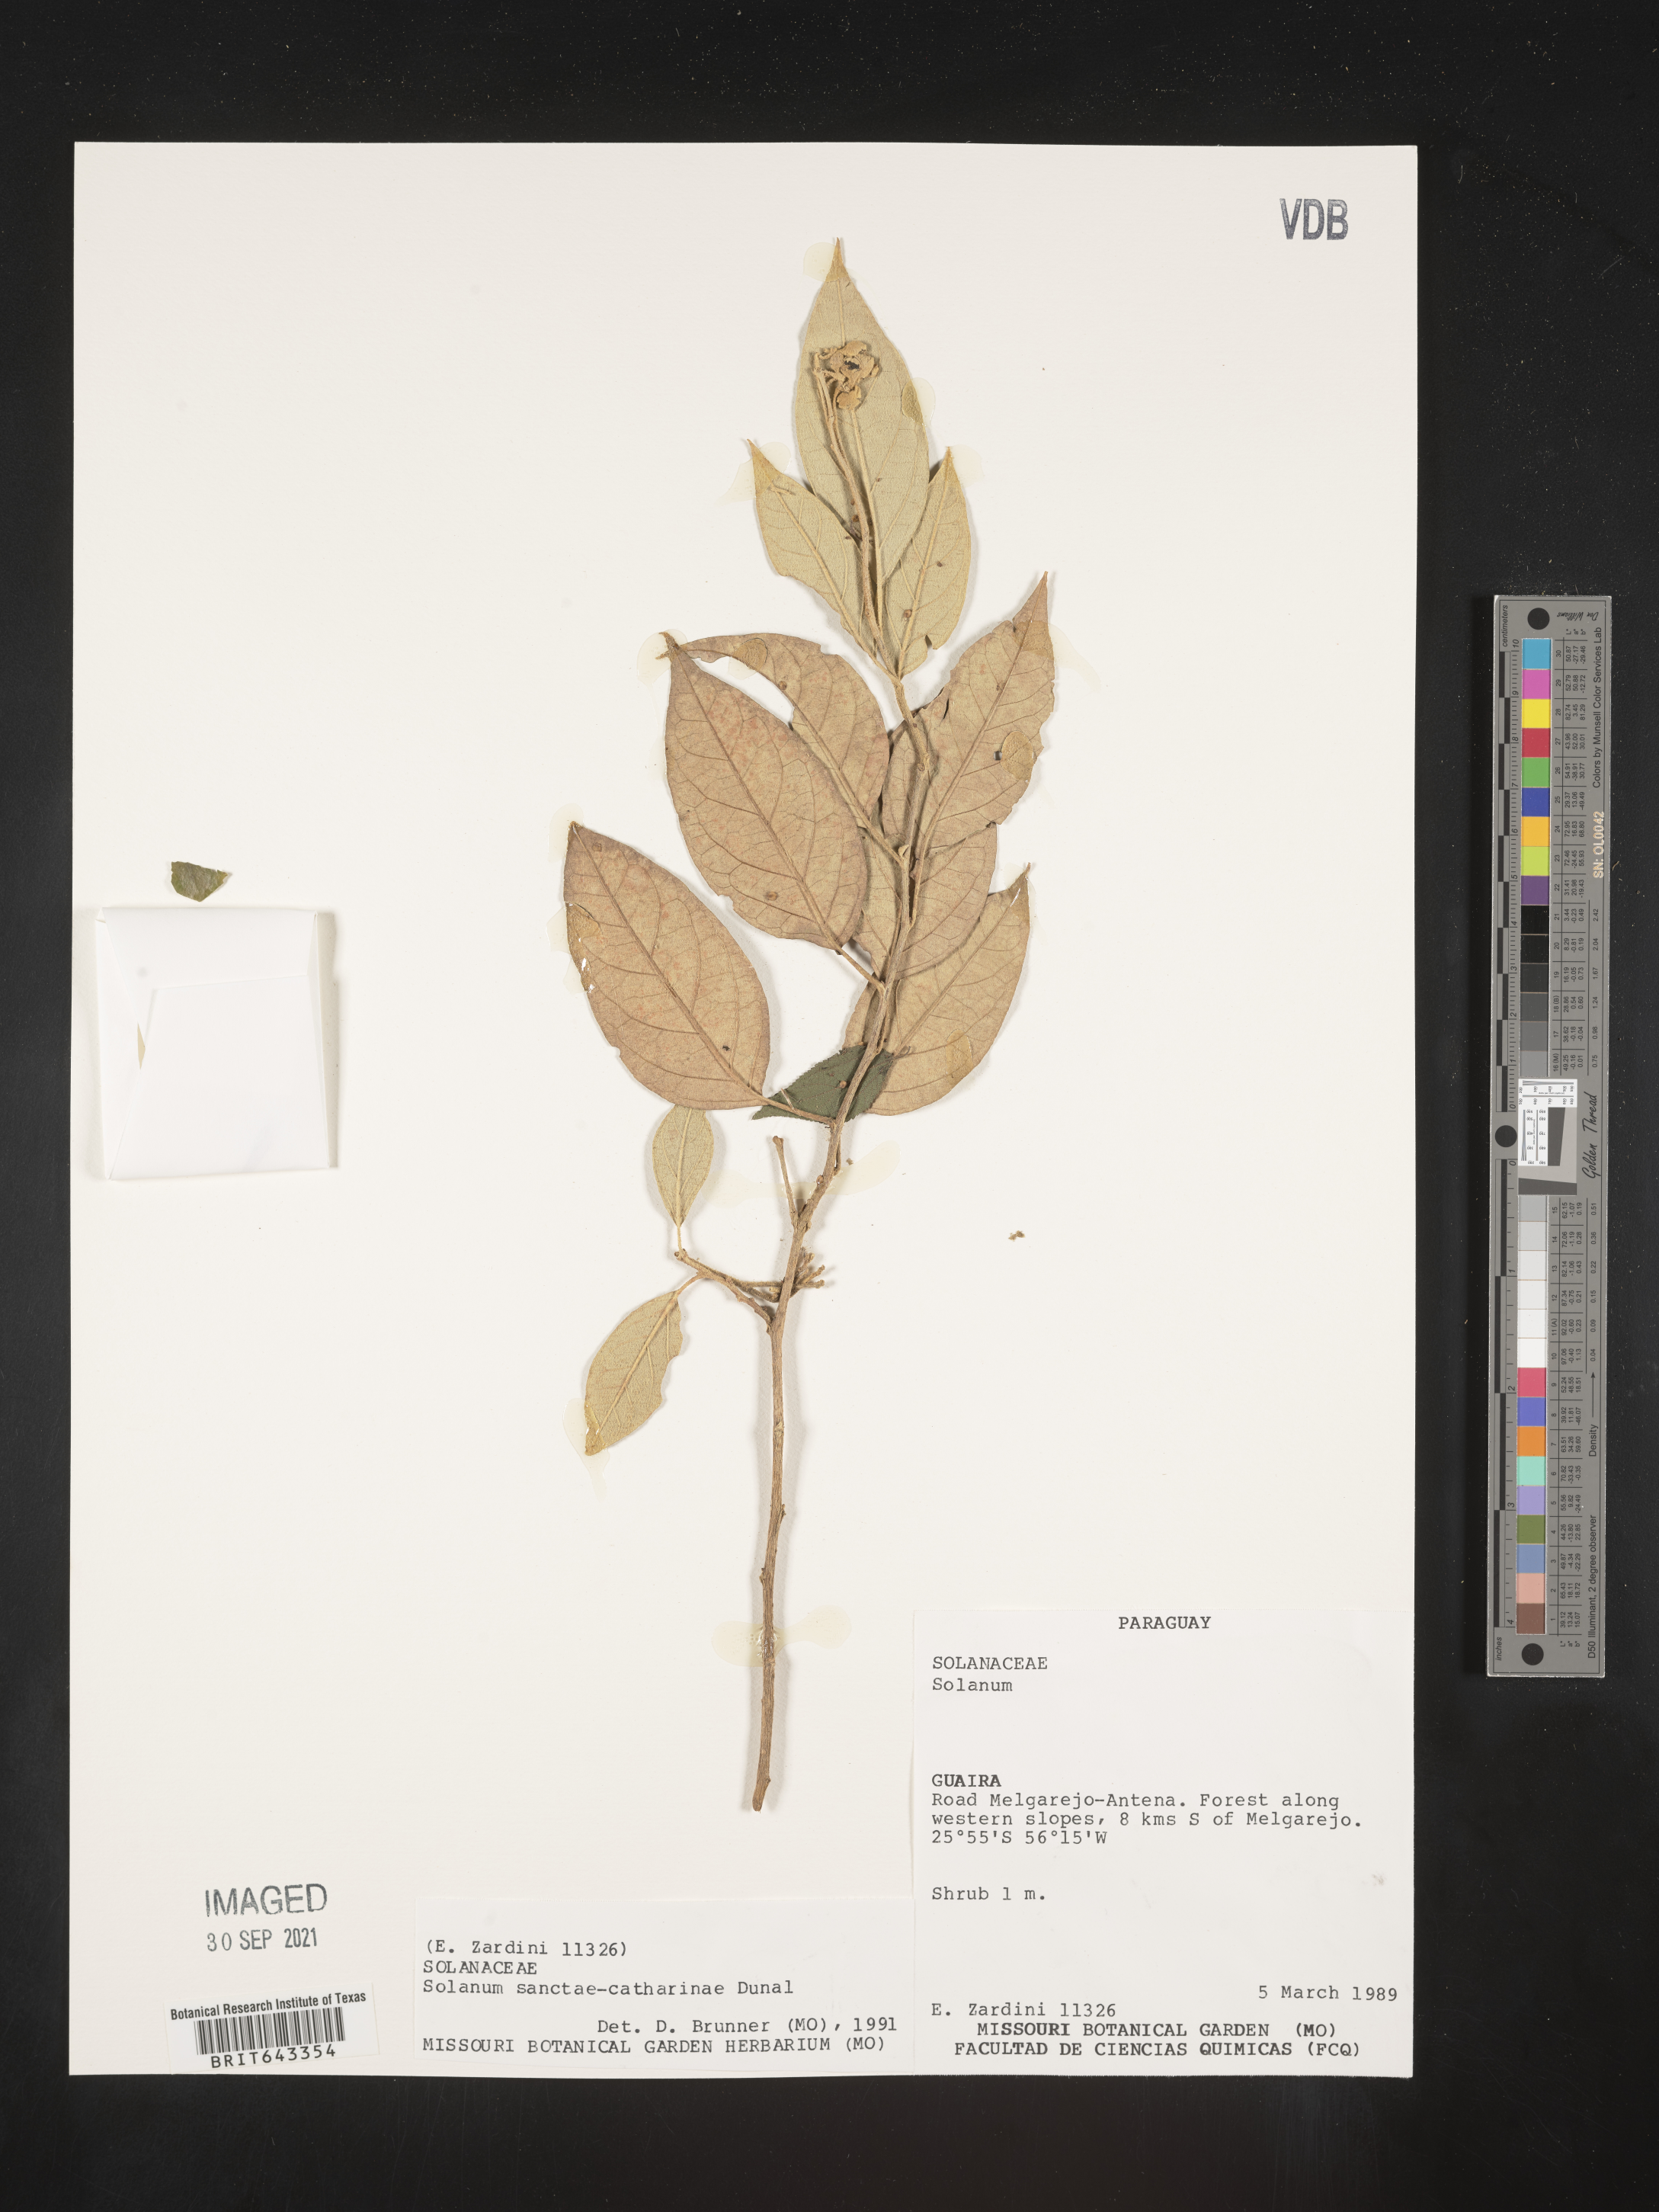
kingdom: Plantae
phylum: Tracheophyta
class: Magnoliopsida
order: Solanales
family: Solanaceae
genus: Solanum
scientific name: Solanum
